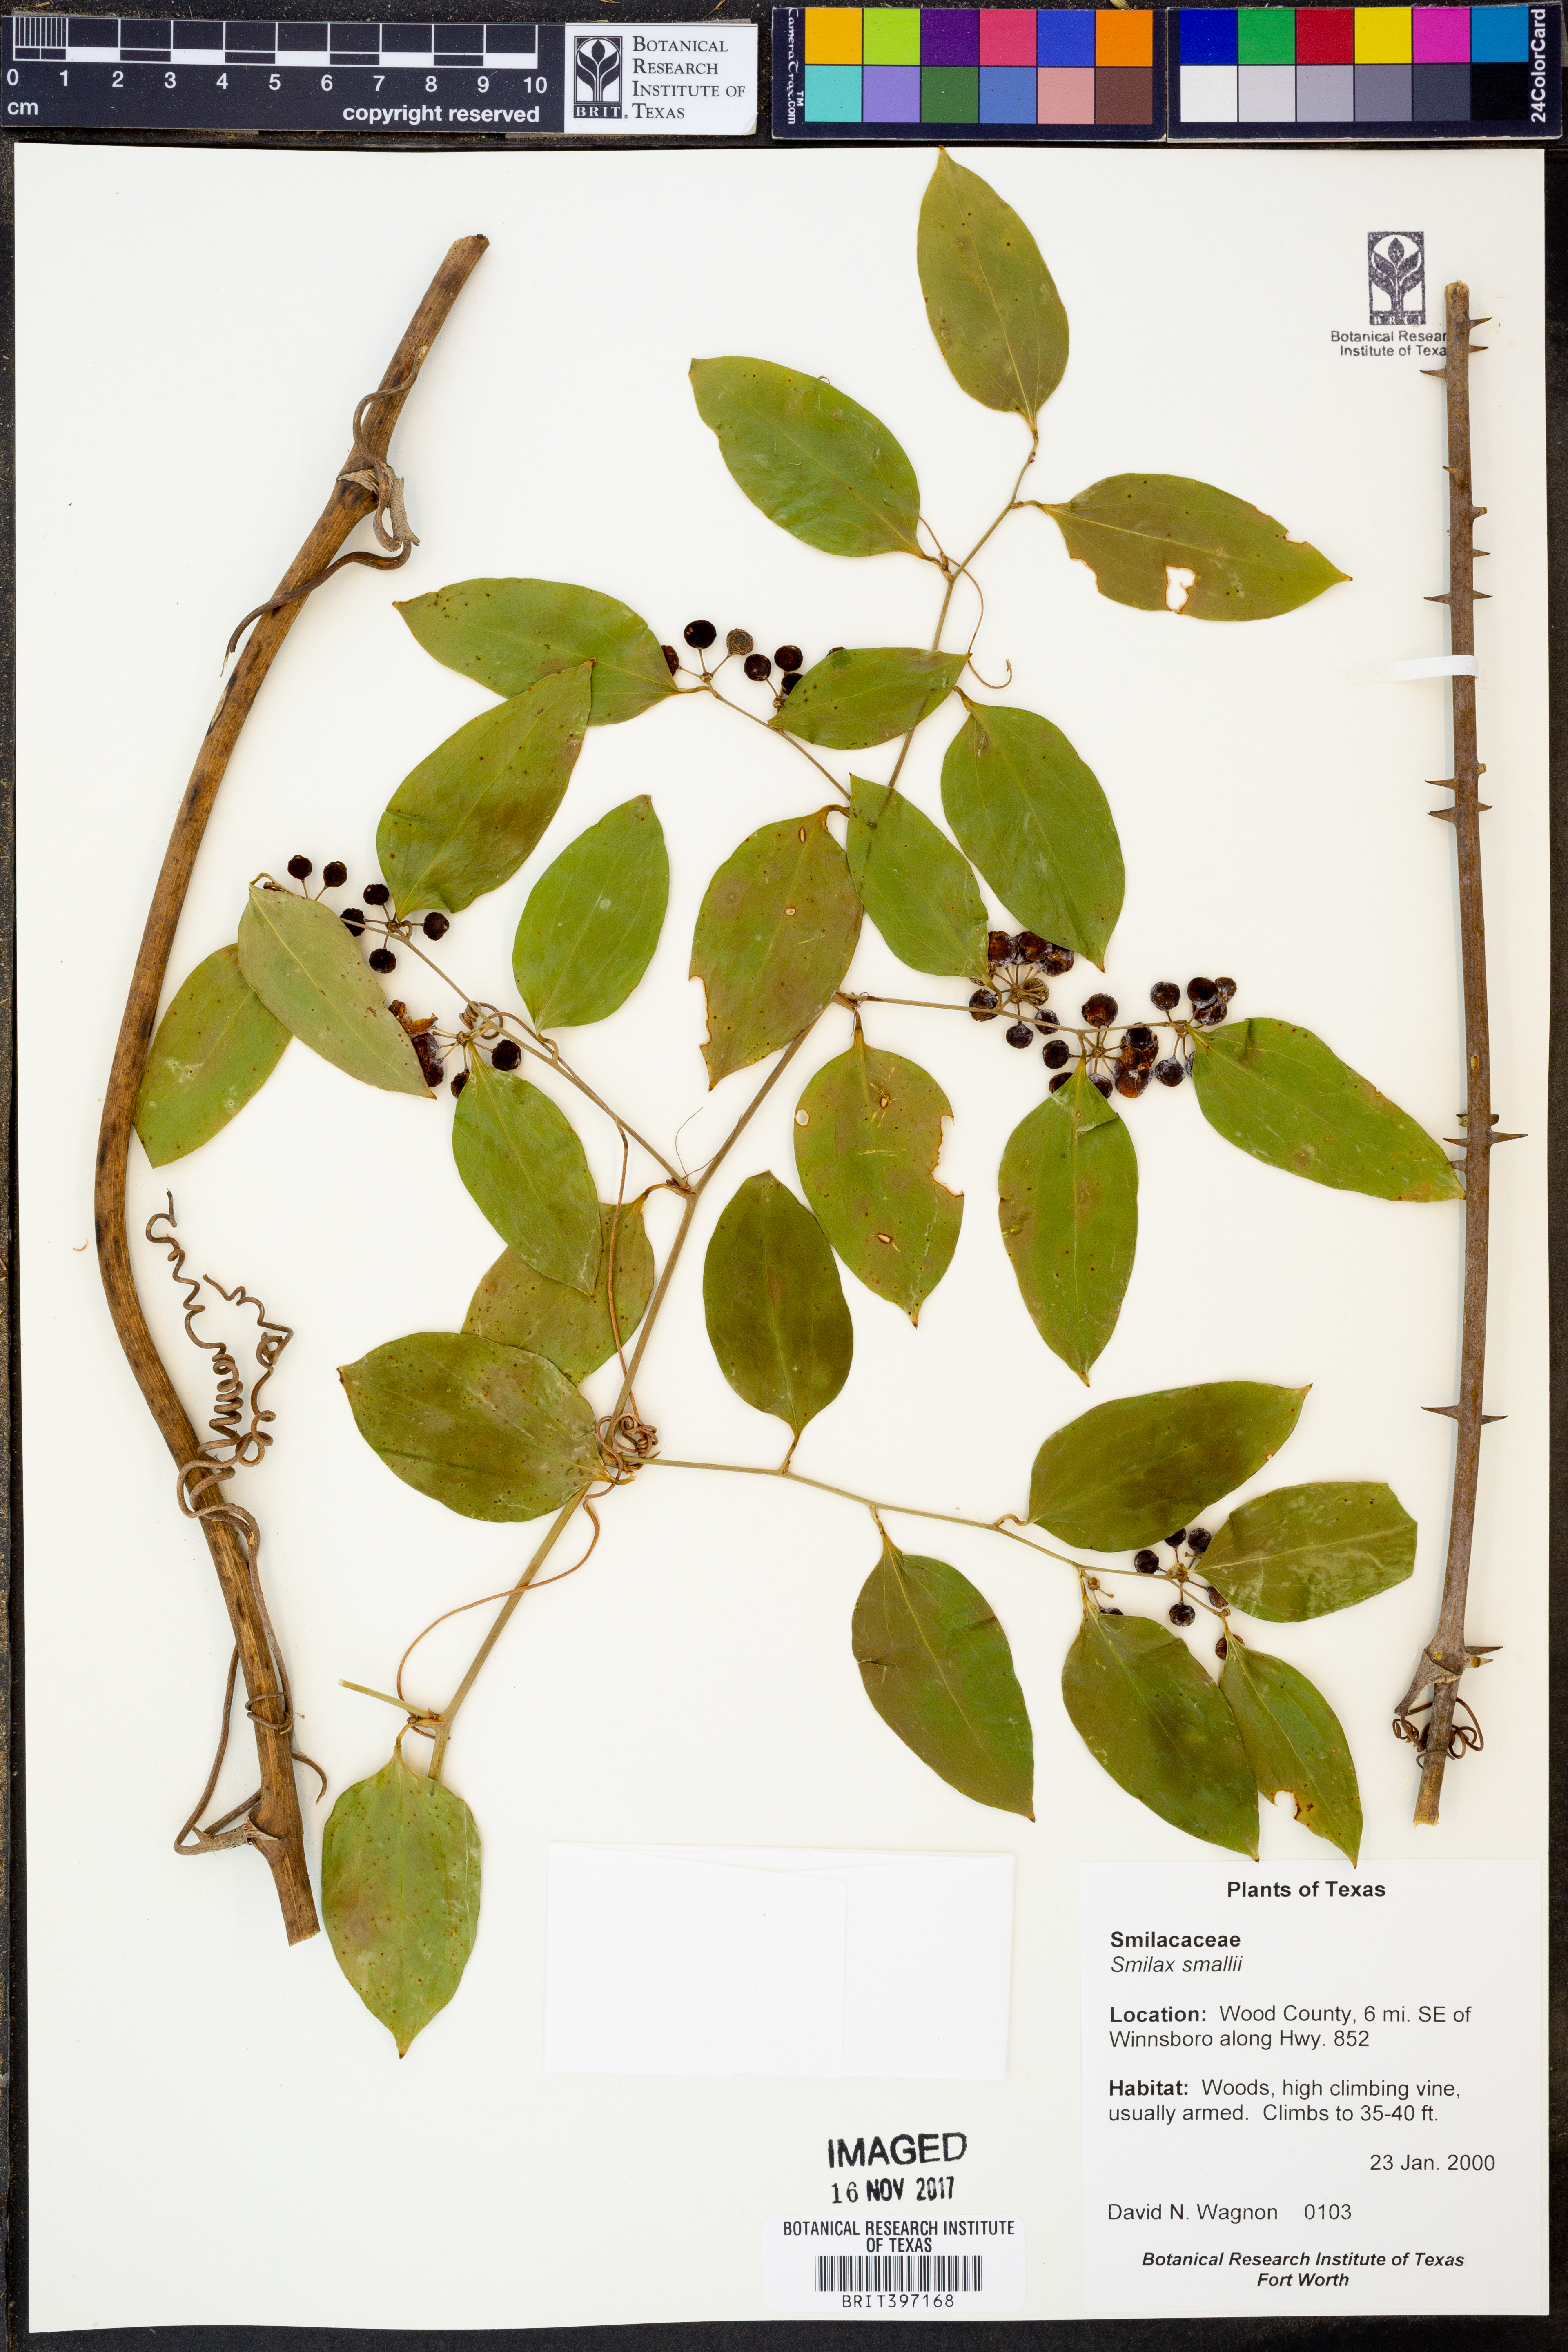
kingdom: Plantae
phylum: Tracheophyta
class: Liliopsida
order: Liliales
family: Smilacaceae
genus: Smilax
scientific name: Smilax maritima
